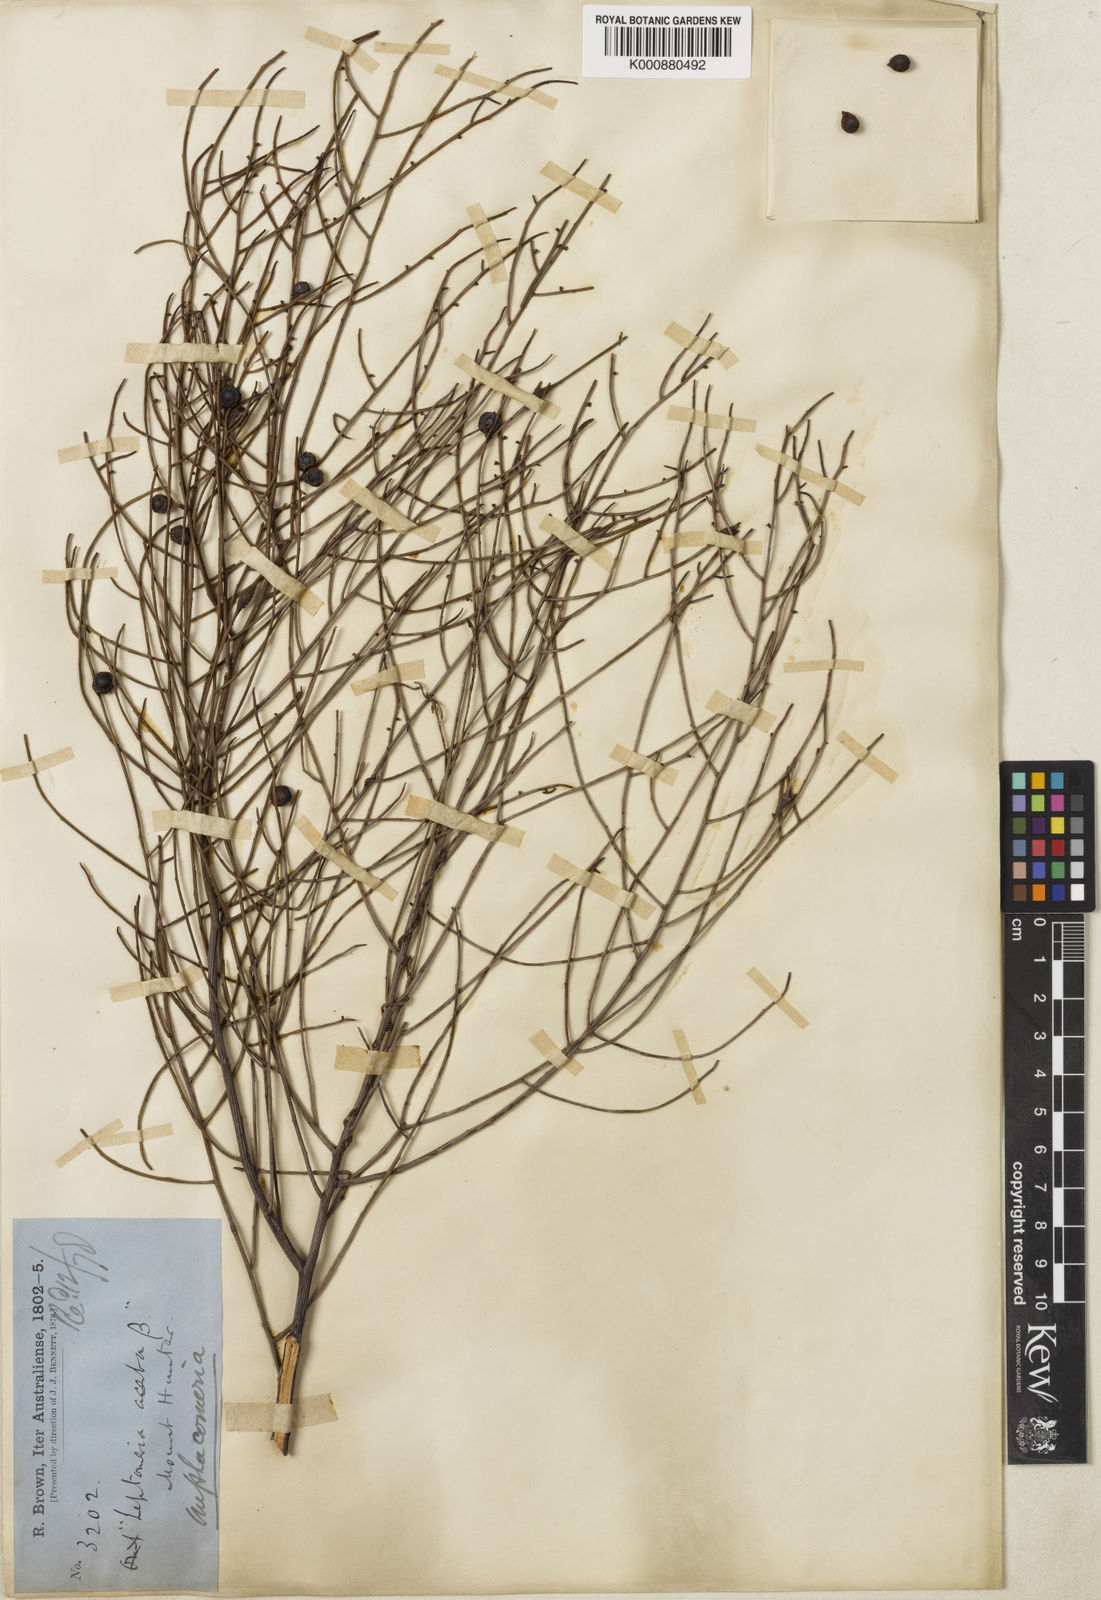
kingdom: Plantae
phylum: Tracheophyta
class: Magnoliopsida
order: Santalales
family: Santalaceae
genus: Omphacomeria
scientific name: Omphacomeria acerba
